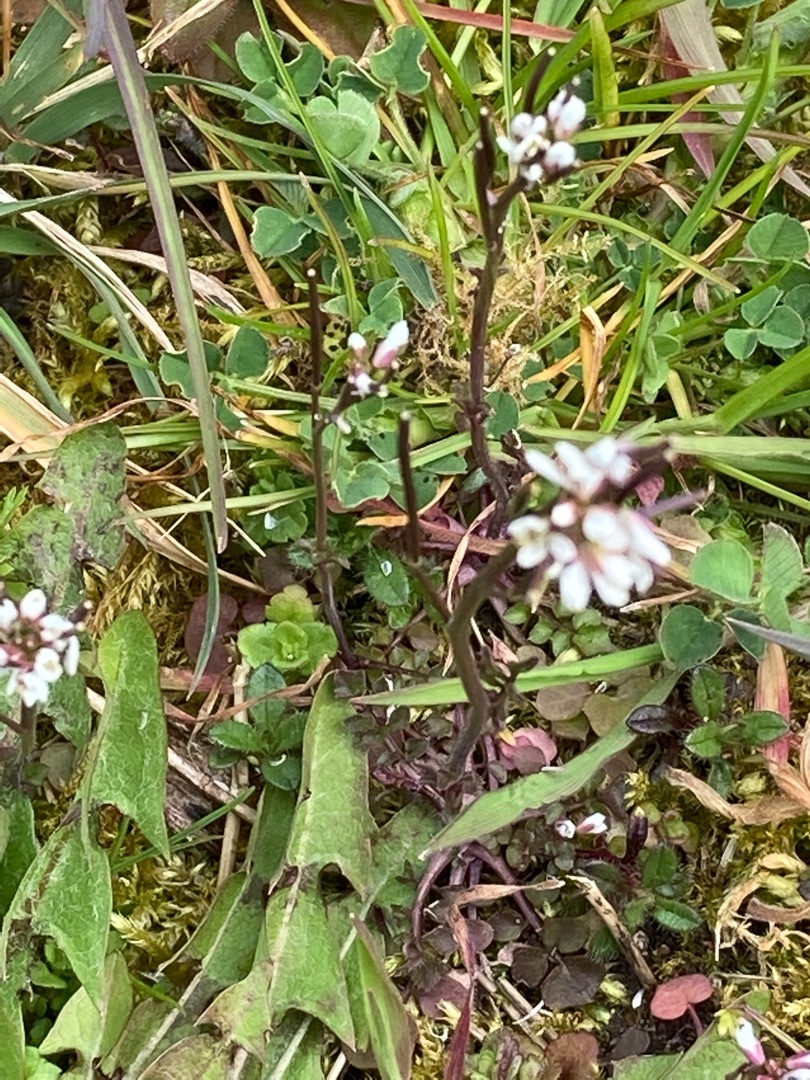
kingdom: Plantae
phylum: Tracheophyta
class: Magnoliopsida
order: Brassicales
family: Brassicaceae
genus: Cardamine
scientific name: Cardamine hirsuta
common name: Roset-springklap
